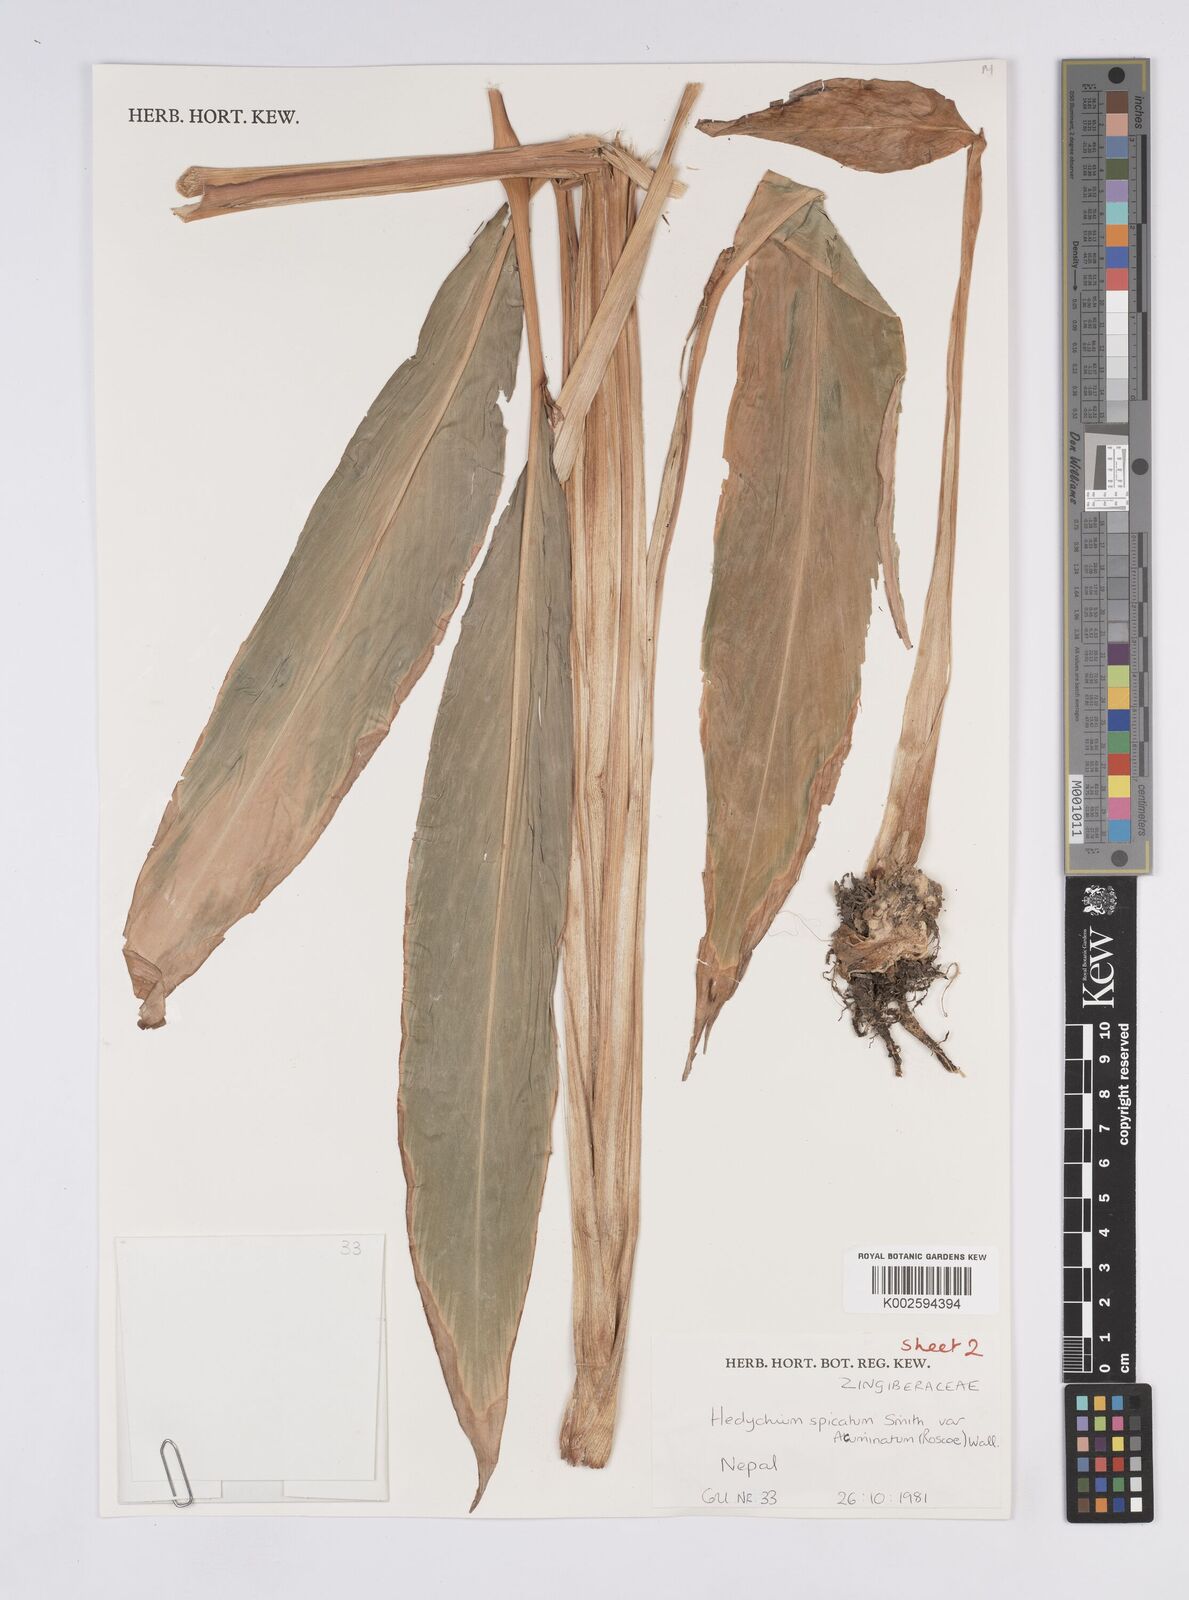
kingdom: Plantae
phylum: Tracheophyta
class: Liliopsida
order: Zingiberales
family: Zingiberaceae
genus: Hedychium
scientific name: Hedychium spicatum
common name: Spiked ginger-lily
